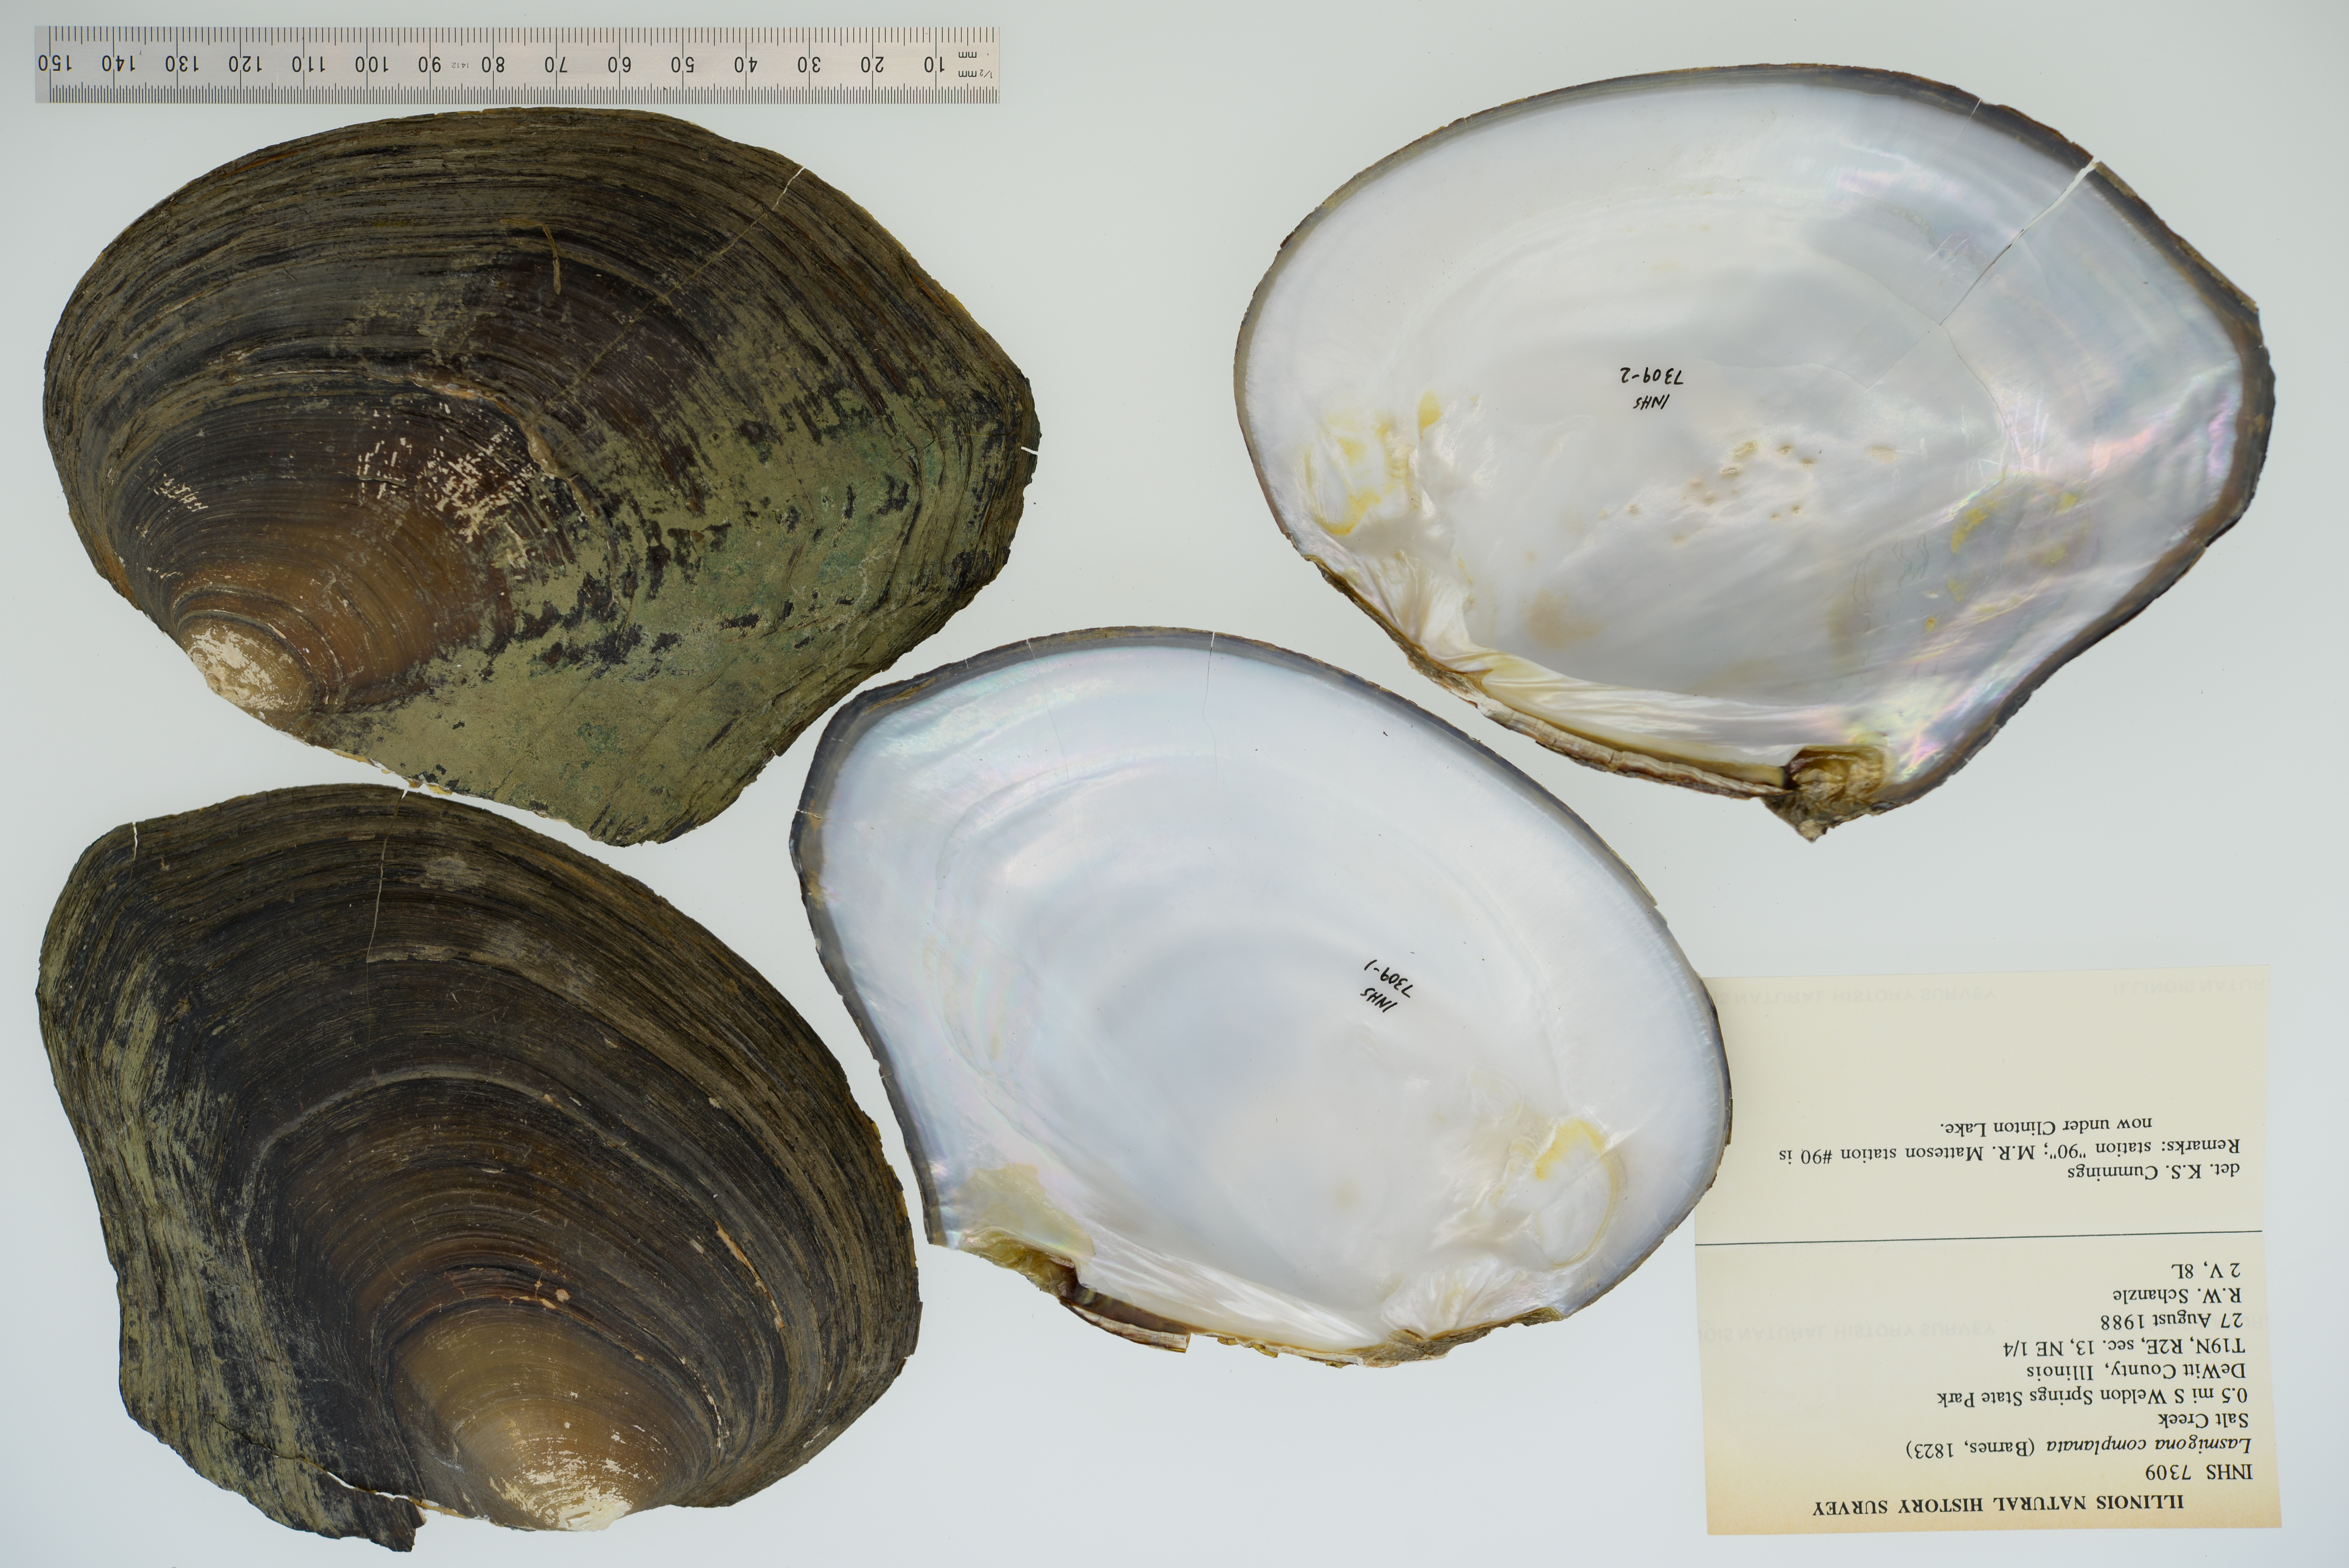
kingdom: Animalia
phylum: Mollusca
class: Bivalvia
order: Unionida
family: Unionidae
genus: Lasmigona
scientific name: Lasmigona complanata
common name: White heelsplitter
